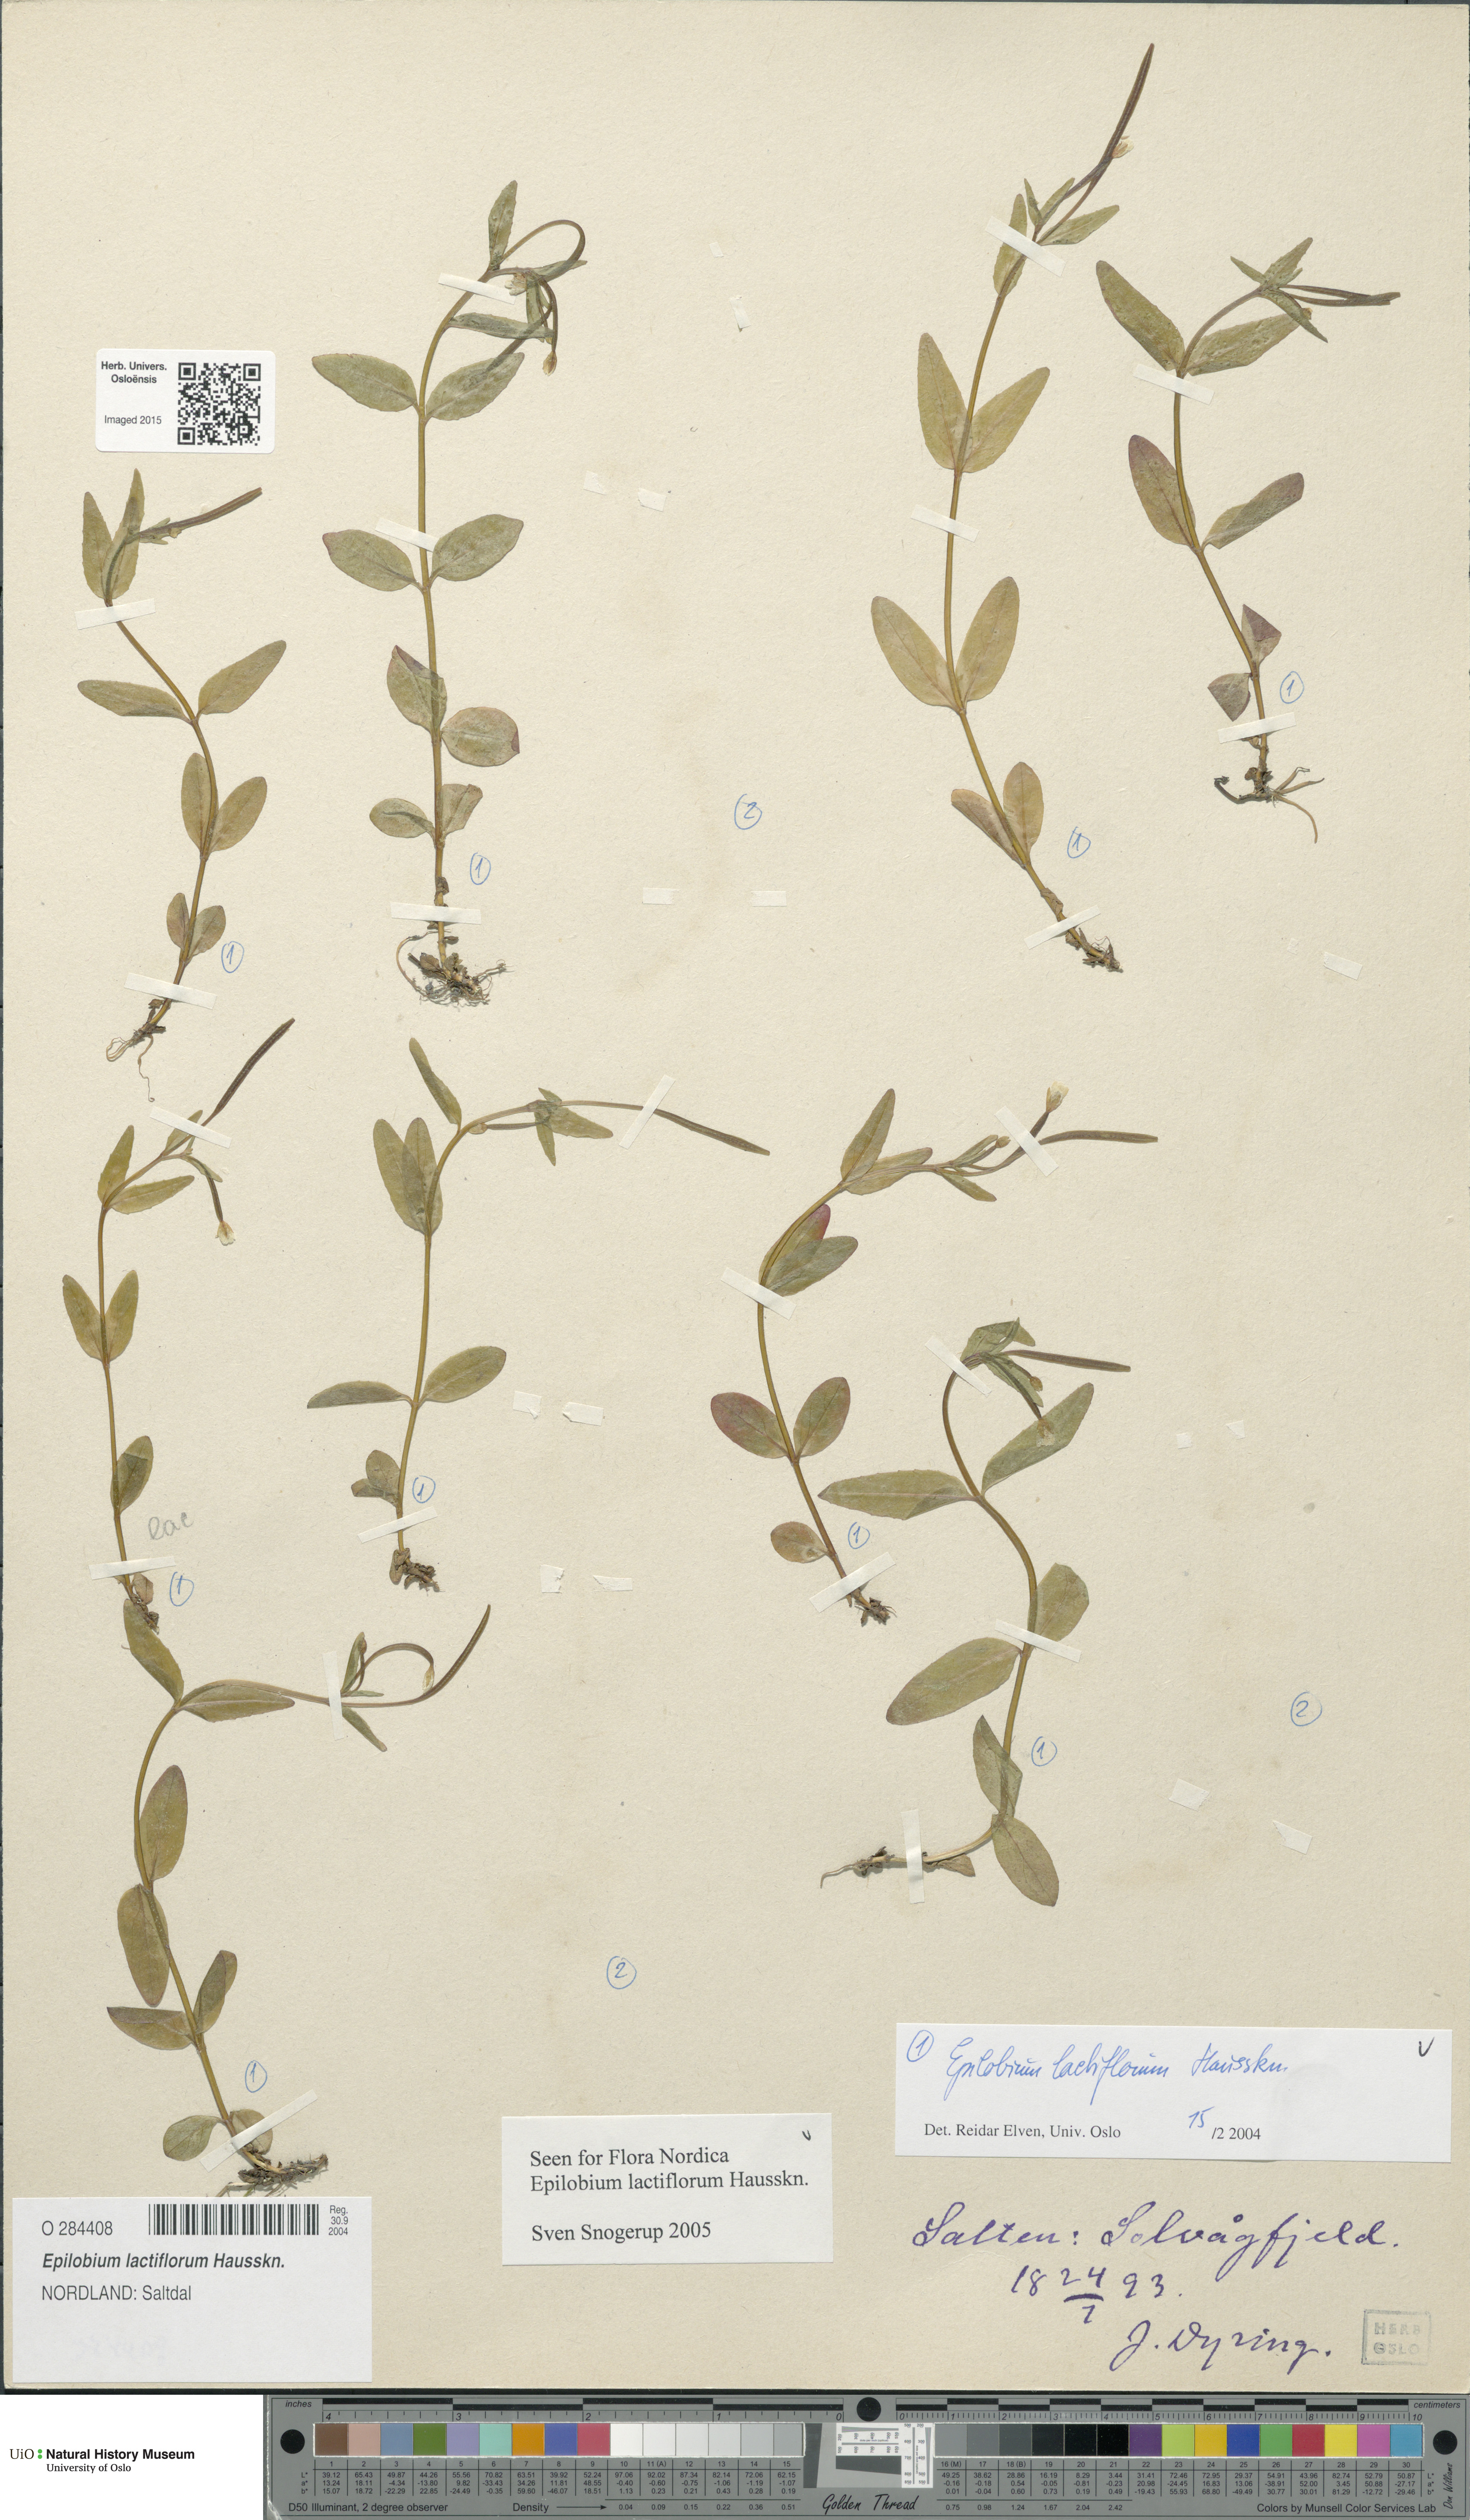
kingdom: Plantae
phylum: Tracheophyta
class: Magnoliopsida
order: Myrtales
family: Onagraceae
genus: Epilobium
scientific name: Epilobium lactiflorum
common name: Milkflower willowherb
